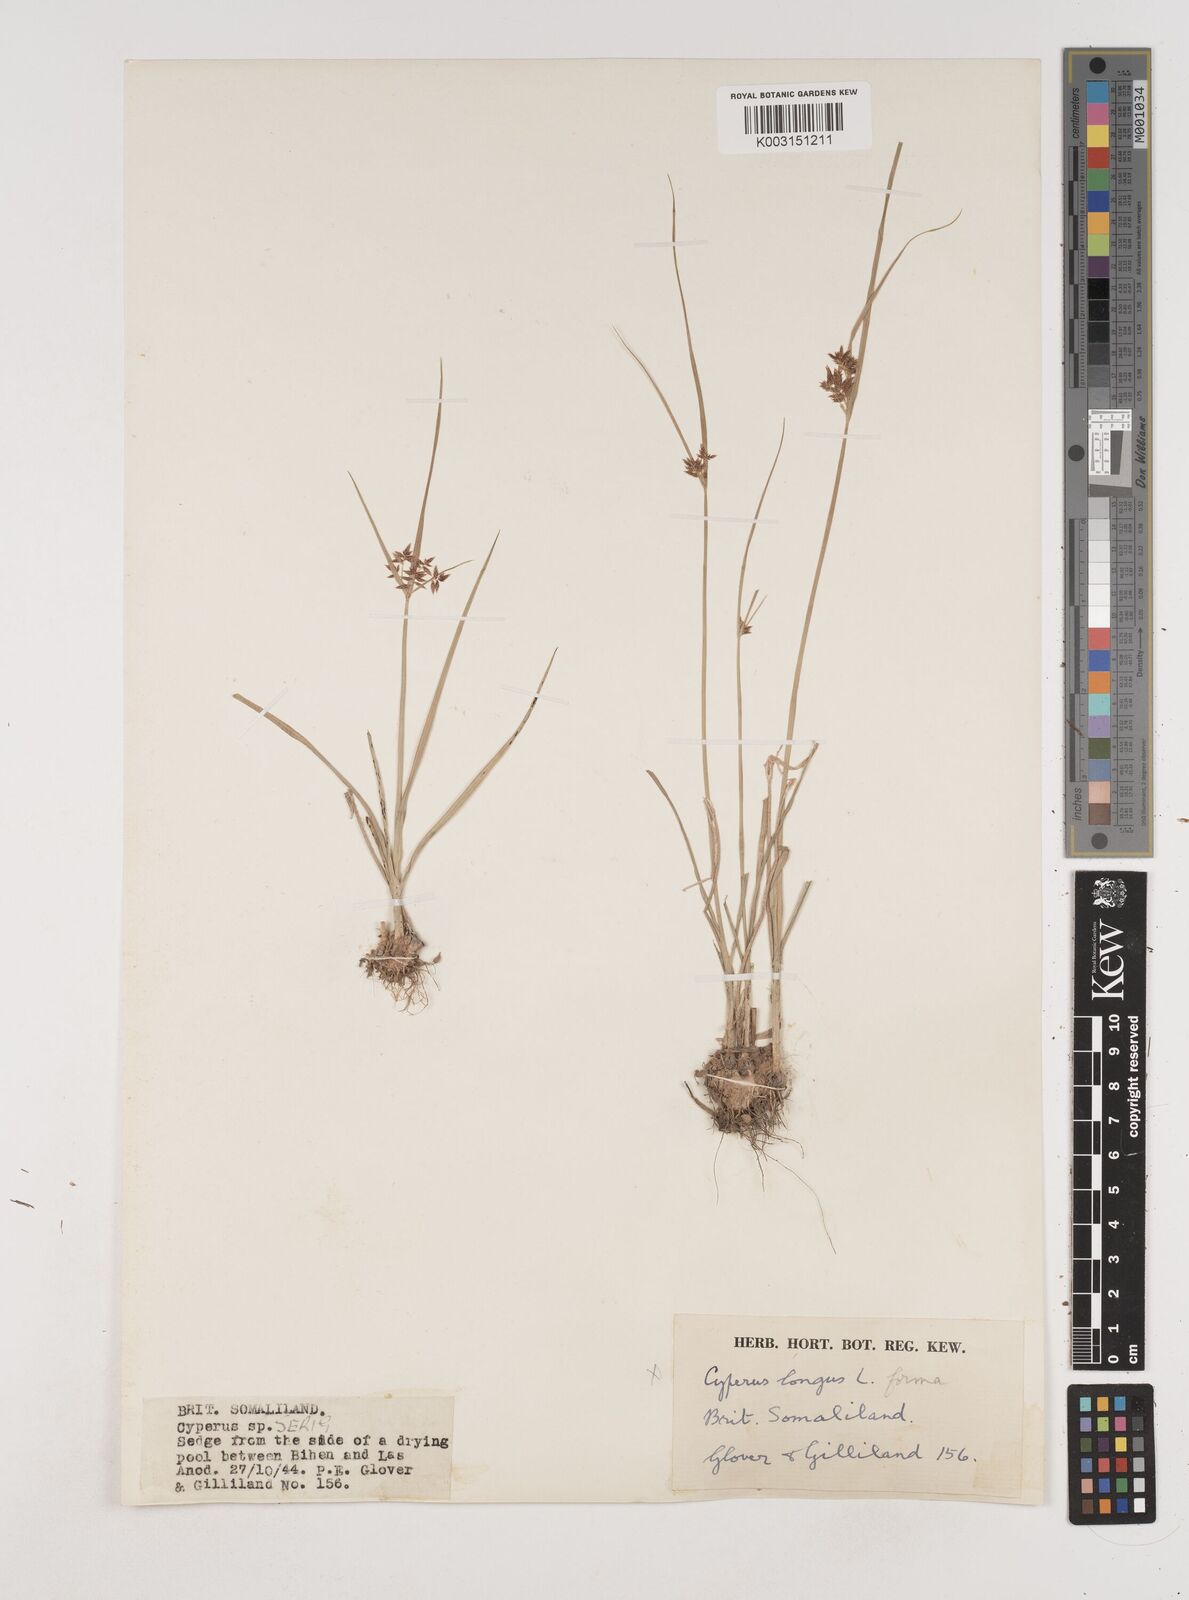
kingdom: Plantae
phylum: Tracheophyta
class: Liliopsida
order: Poales
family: Cyperaceae
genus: Cyperus
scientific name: Cyperus
